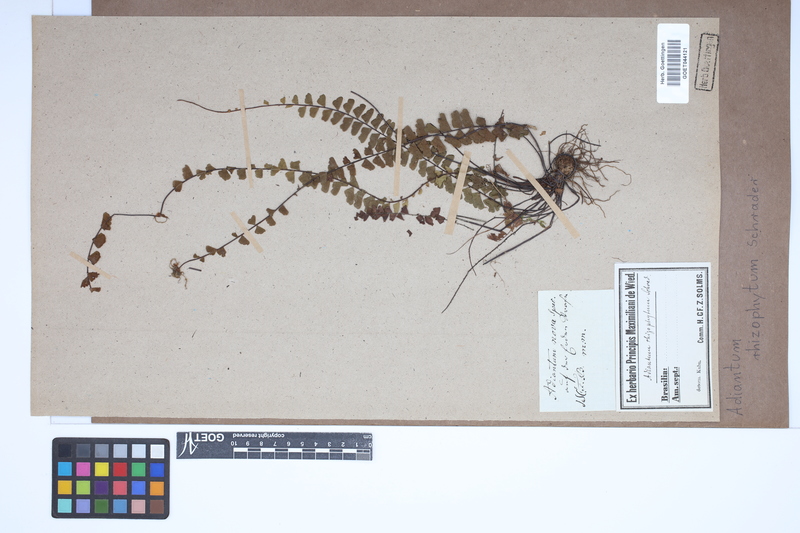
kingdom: Plantae
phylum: Tracheophyta
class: Polypodiopsida
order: Polypodiales
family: Pteridaceae
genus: Adiantum
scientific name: Adiantum rhizophytum
